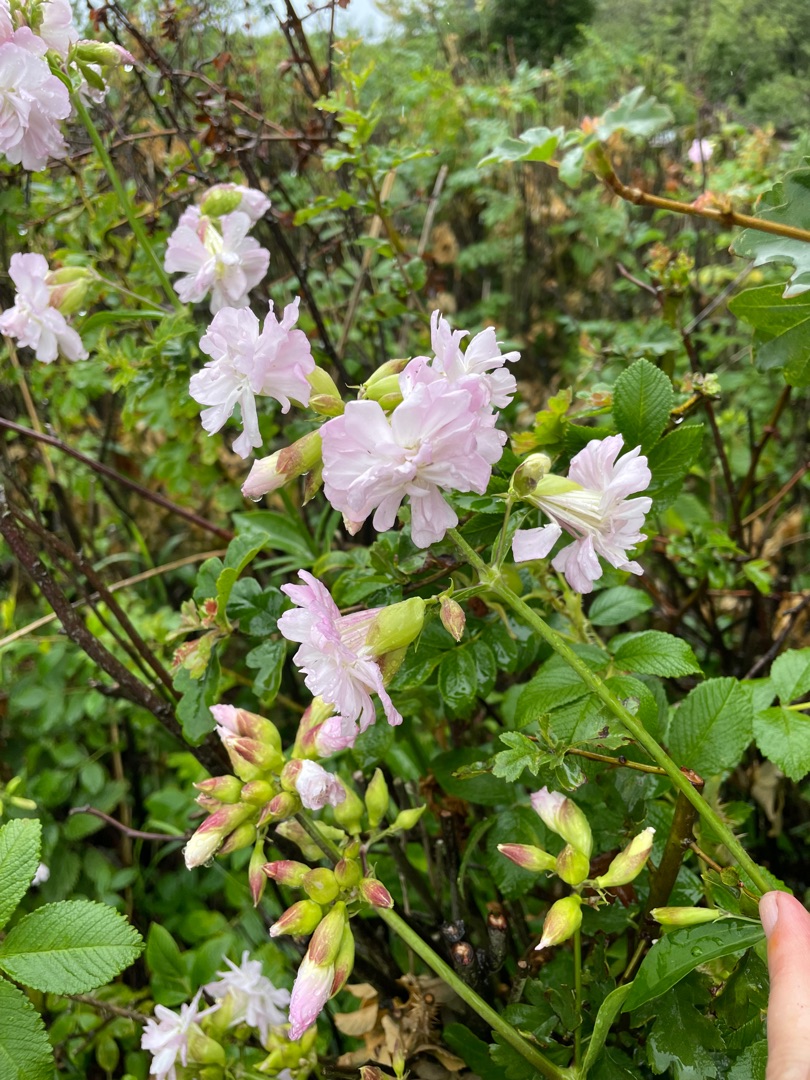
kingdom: Plantae
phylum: Tracheophyta
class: Magnoliopsida
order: Caryophyllales
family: Caryophyllaceae
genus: Saponaria
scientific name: Saponaria officinalis
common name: Sæbeurt
